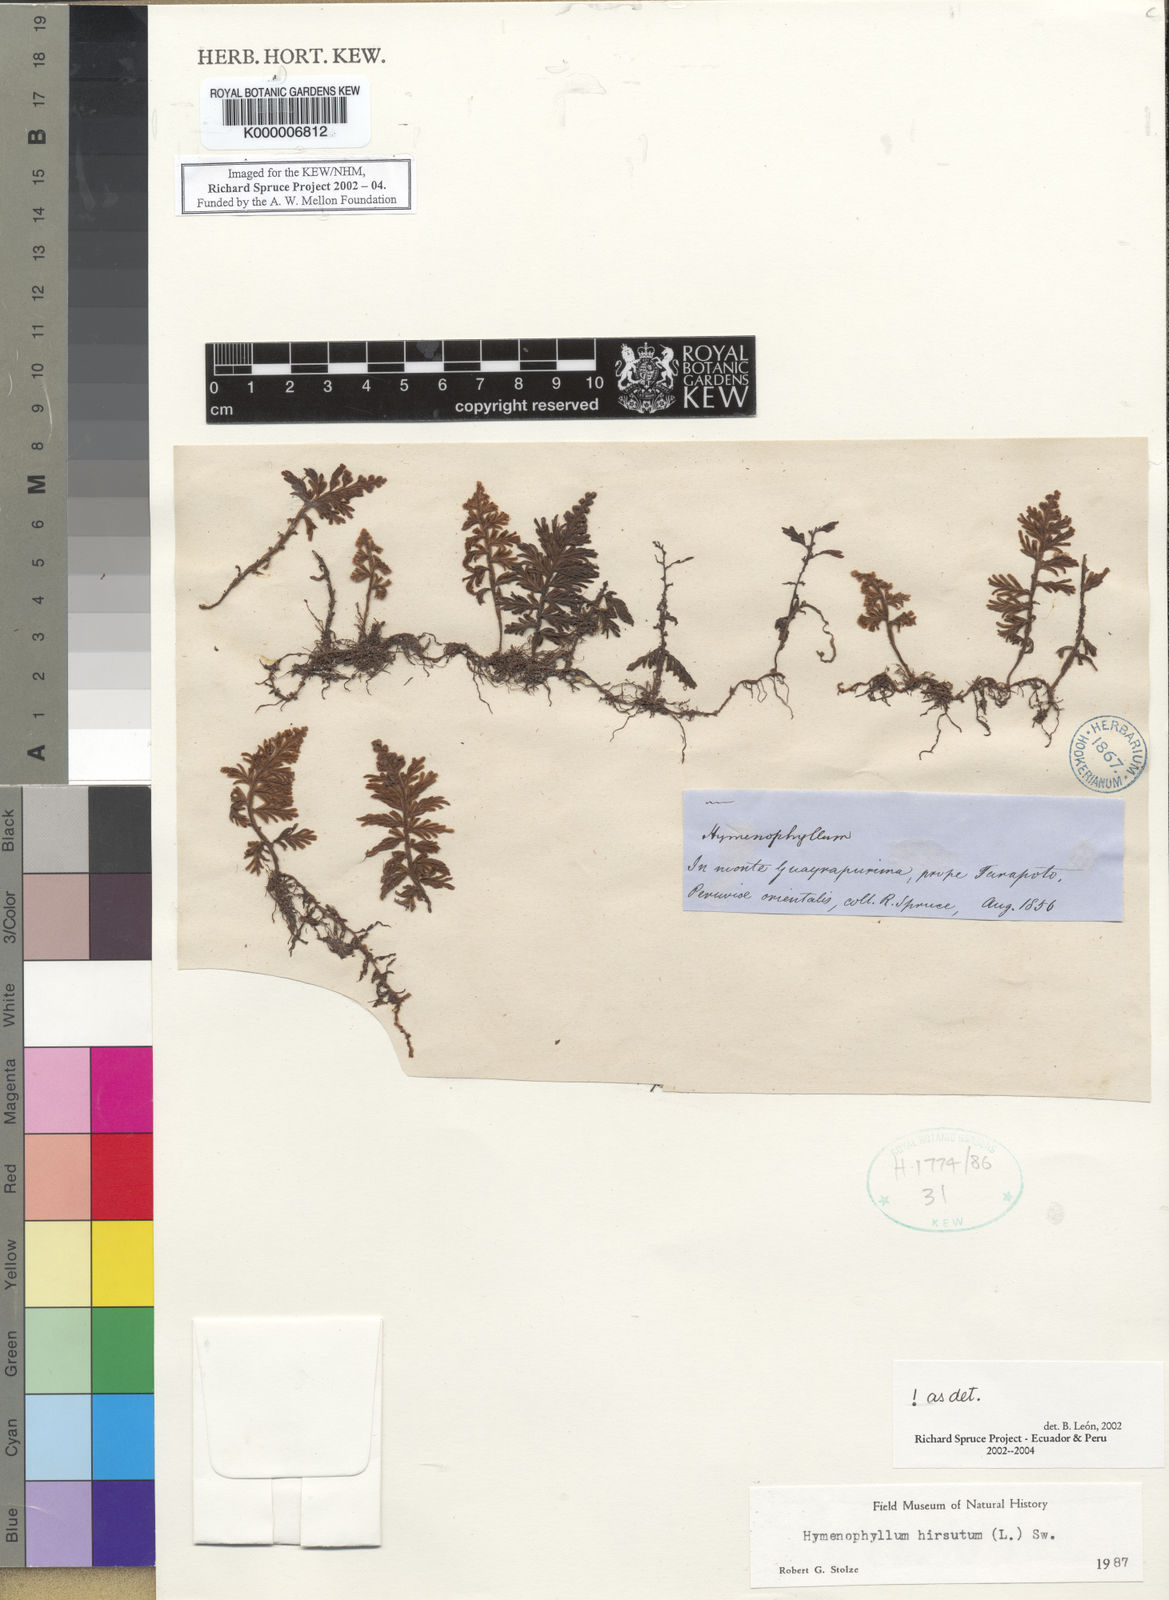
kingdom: Plantae
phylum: Tracheophyta
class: Polypodiopsida
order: Hymenophyllales
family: Hymenophyllaceae
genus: Hymenophyllum
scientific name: Hymenophyllum hirsutum
